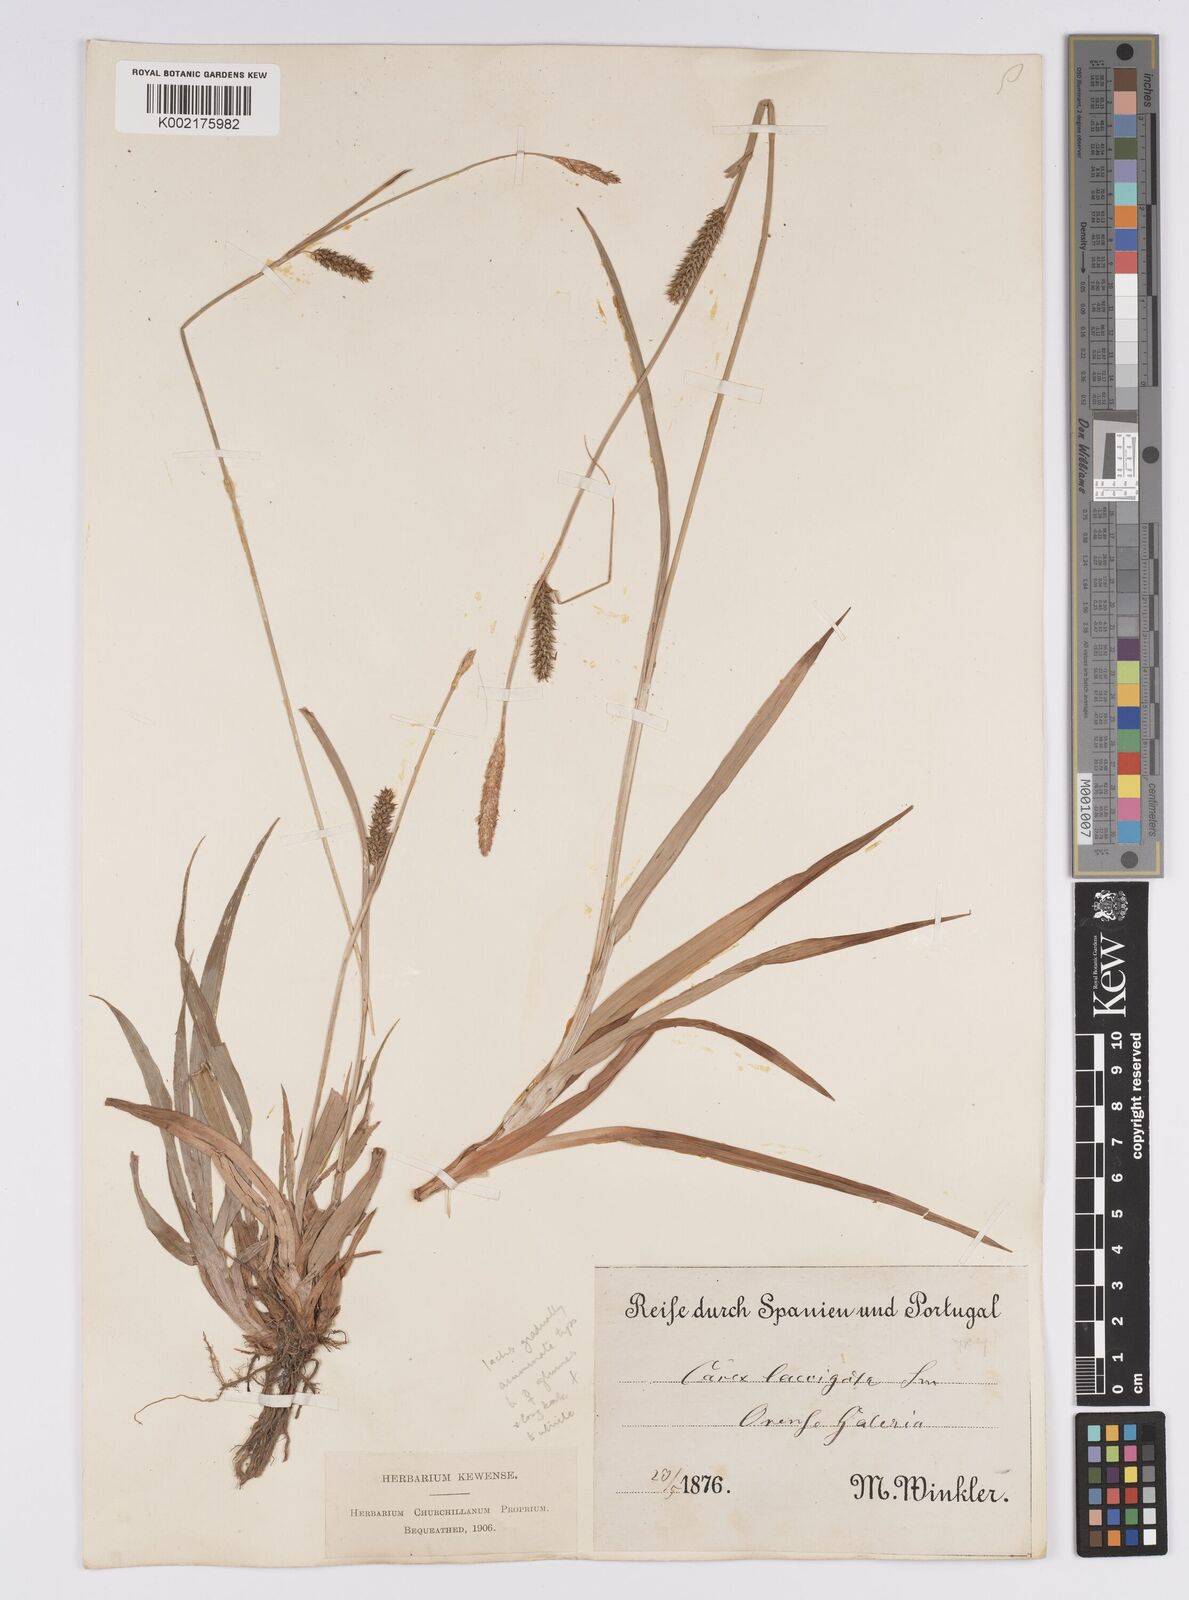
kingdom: Plantae
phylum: Tracheophyta
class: Liliopsida
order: Poales
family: Cyperaceae
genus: Carex
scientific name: Carex laevigata
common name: Smooth-stalked sedge
